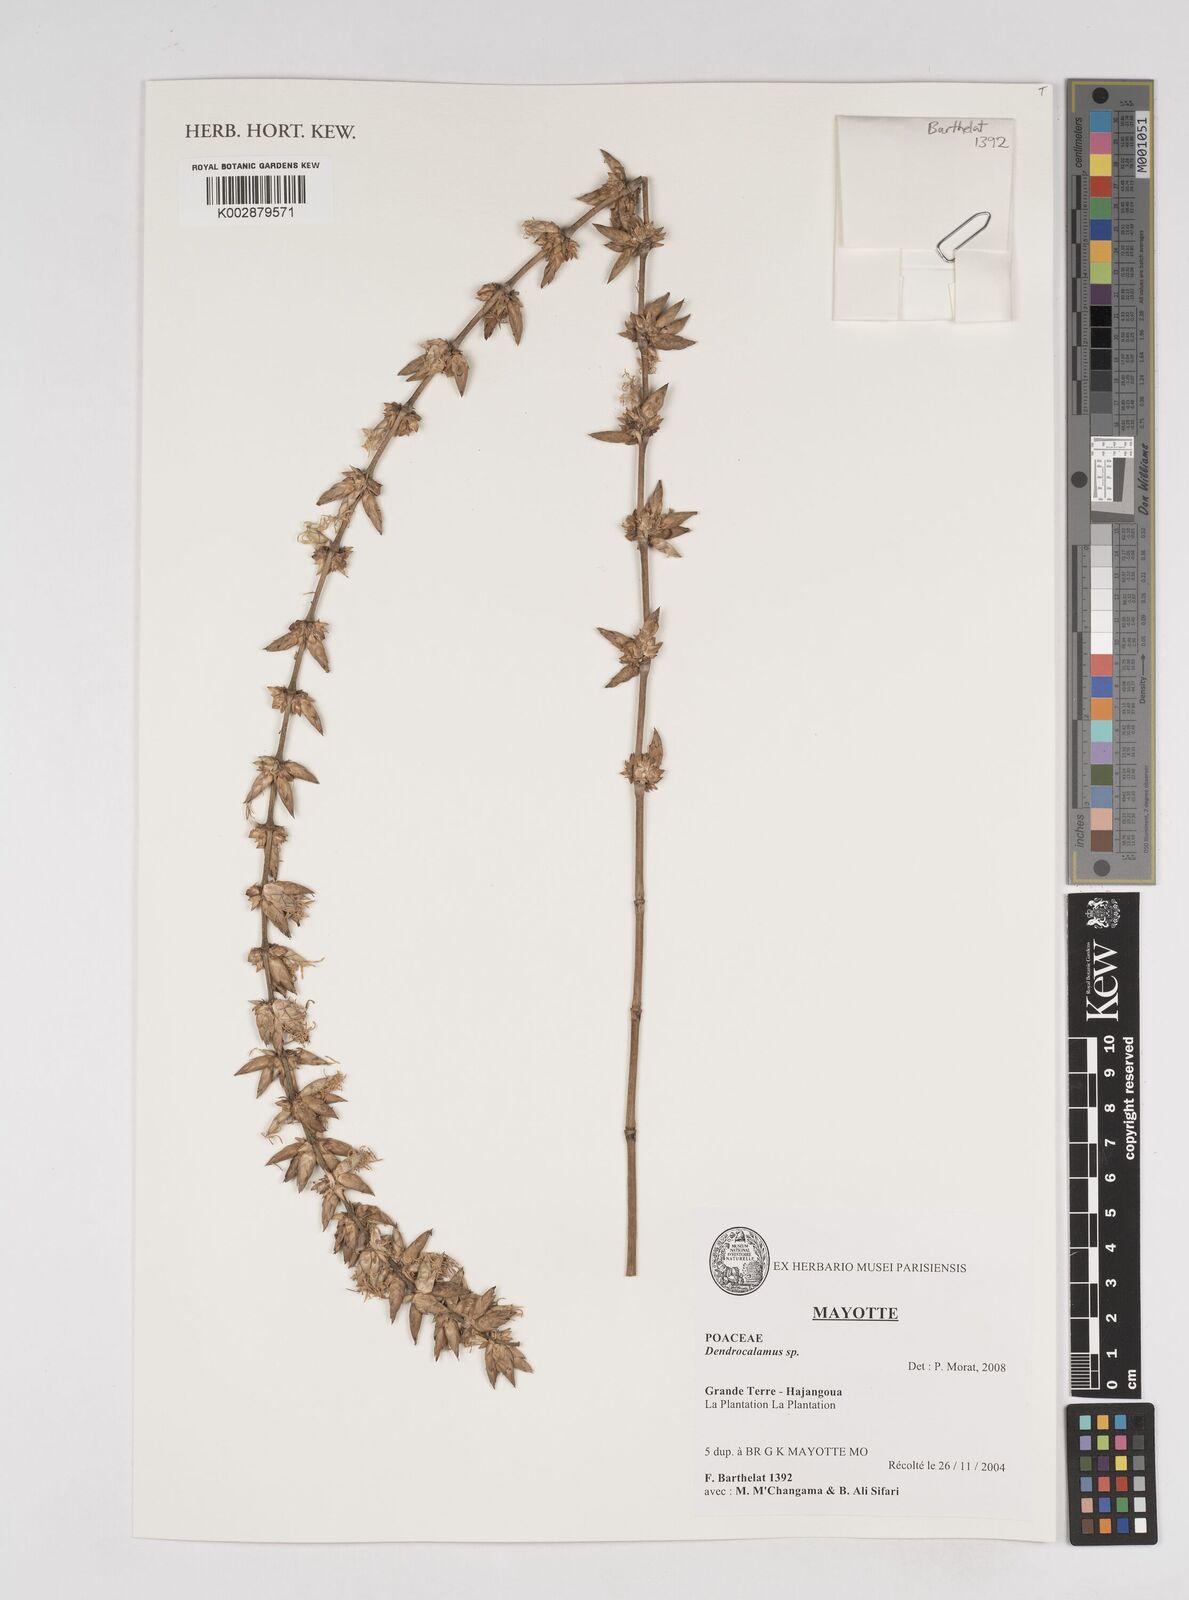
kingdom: Plantae
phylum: Tracheophyta
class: Liliopsida
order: Poales
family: Poaceae
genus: Dendrocalamus
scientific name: Dendrocalamus asper
